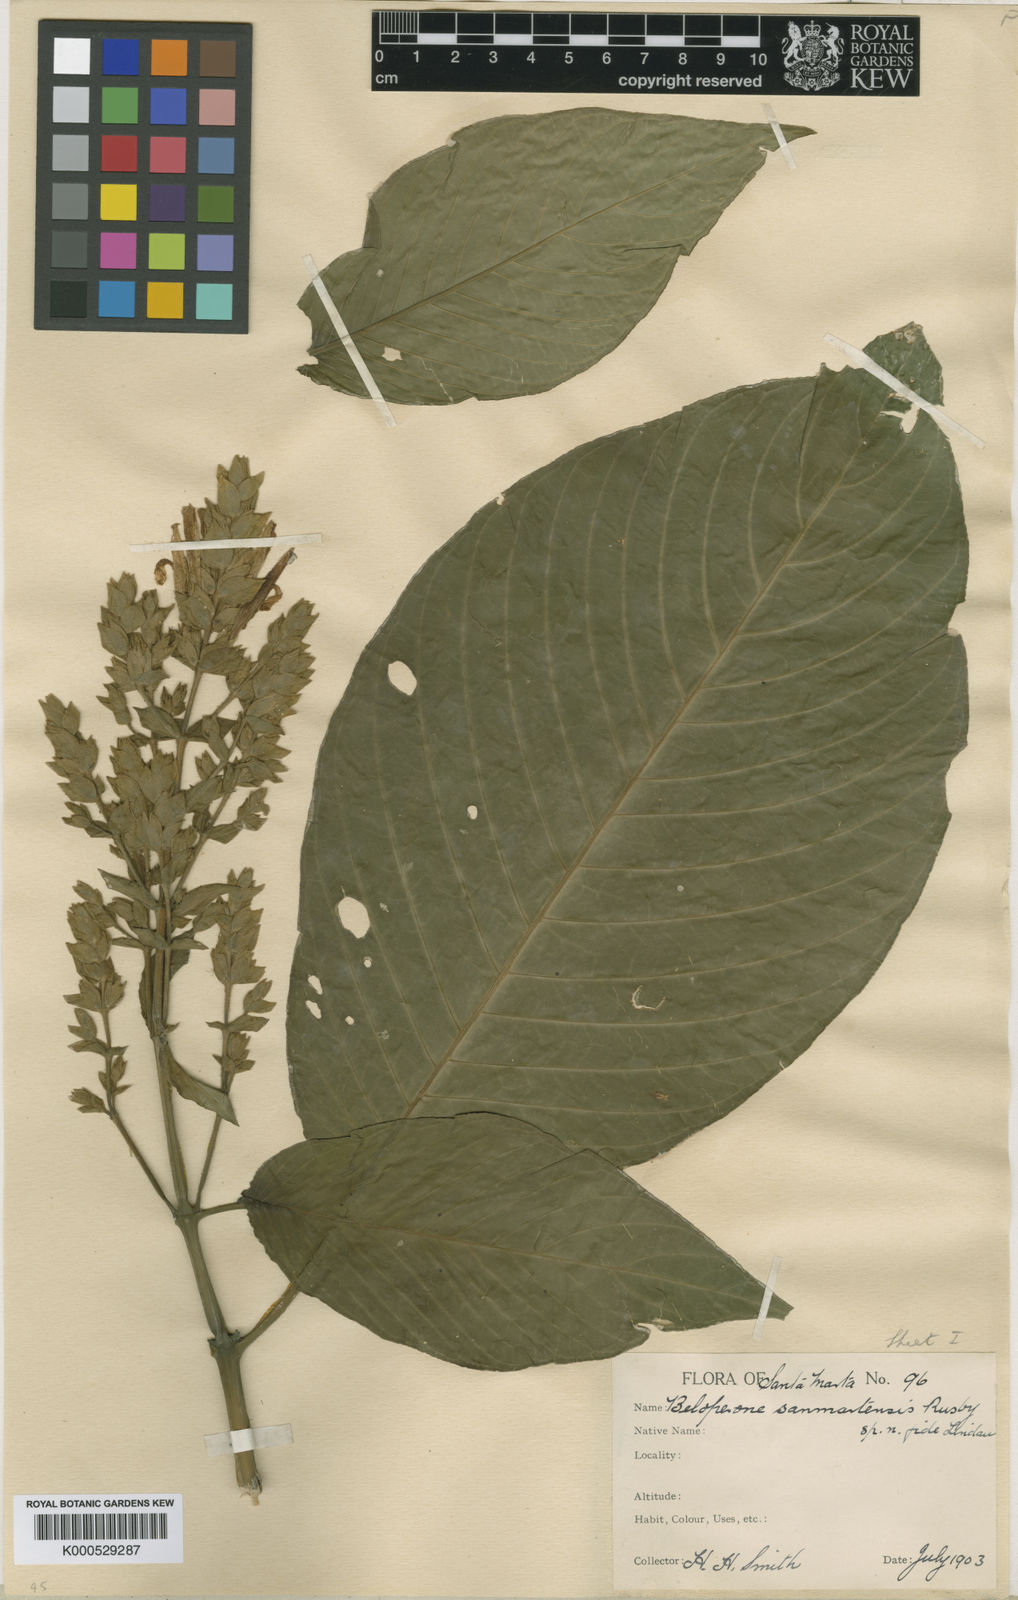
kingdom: Plantae
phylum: Tracheophyta
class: Magnoliopsida
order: Lamiales
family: Acanthaceae
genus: Justicia
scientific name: Justicia
